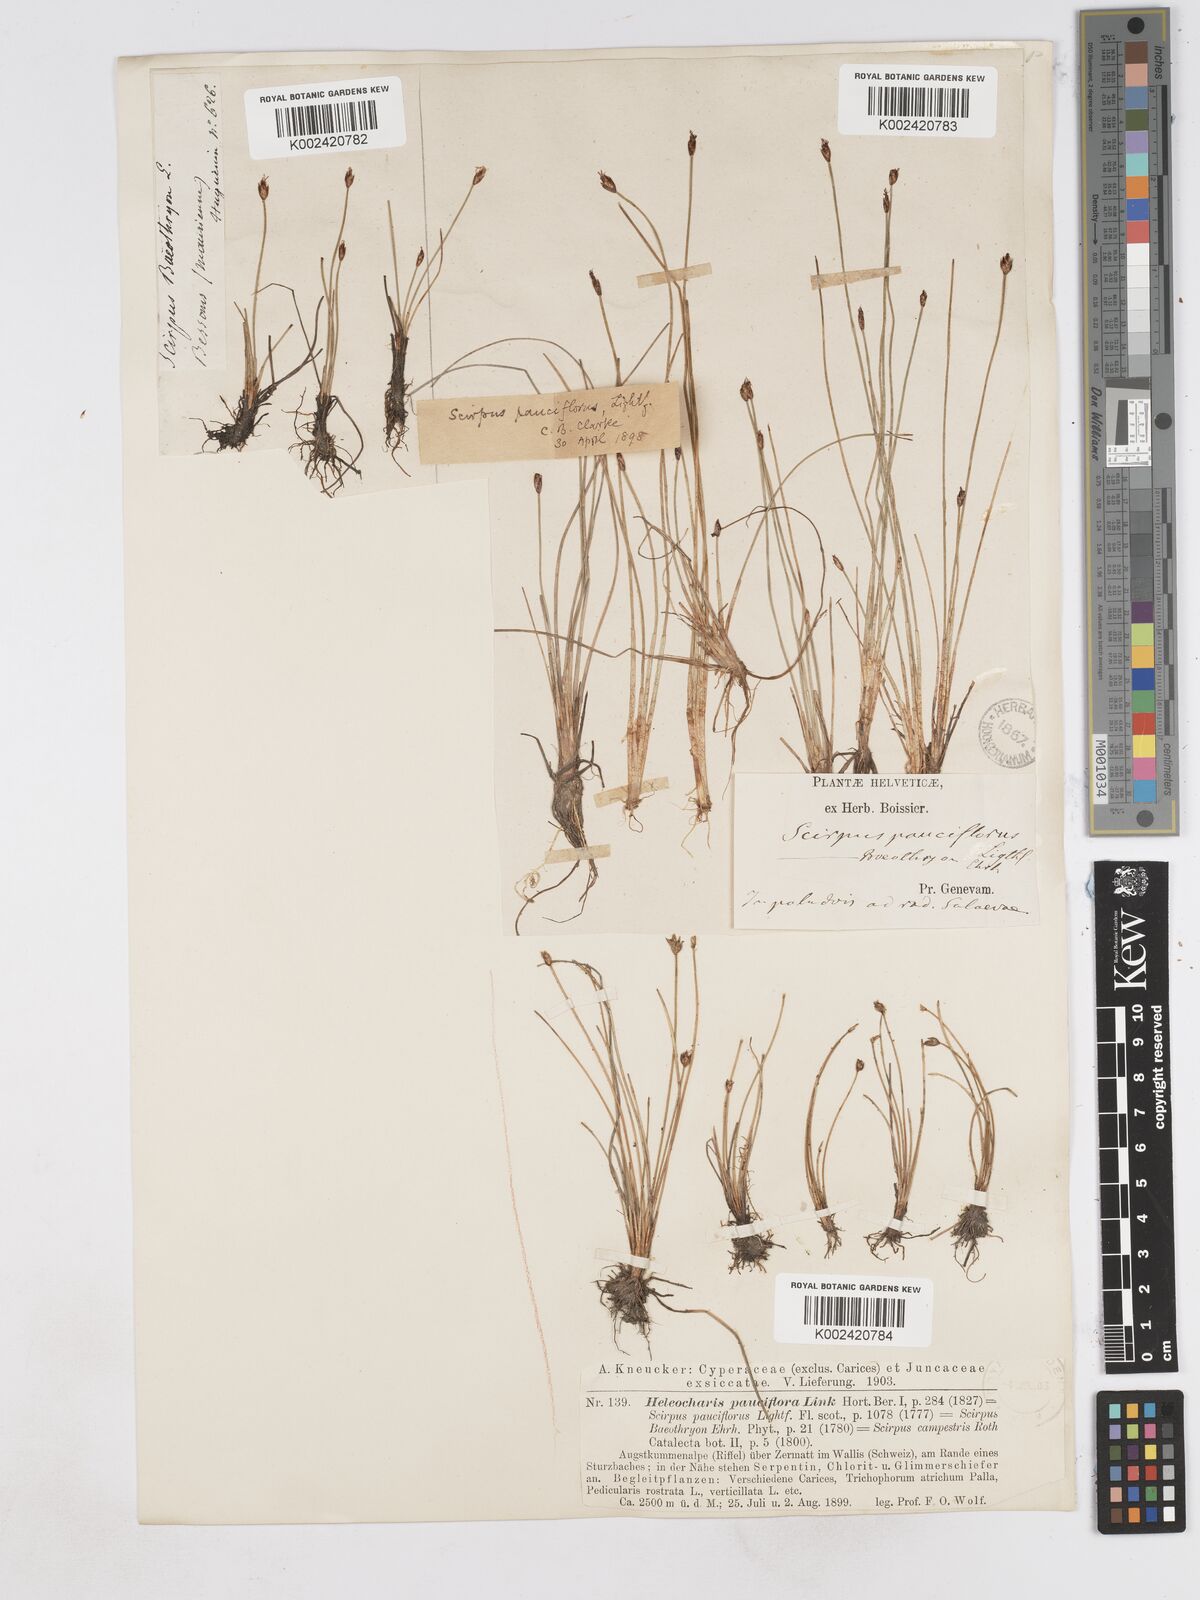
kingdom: Plantae
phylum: Tracheophyta
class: Liliopsida
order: Poales
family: Cyperaceae
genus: Eleocharis
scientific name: Eleocharis quinqueflora
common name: Few-flowered spike-rush
